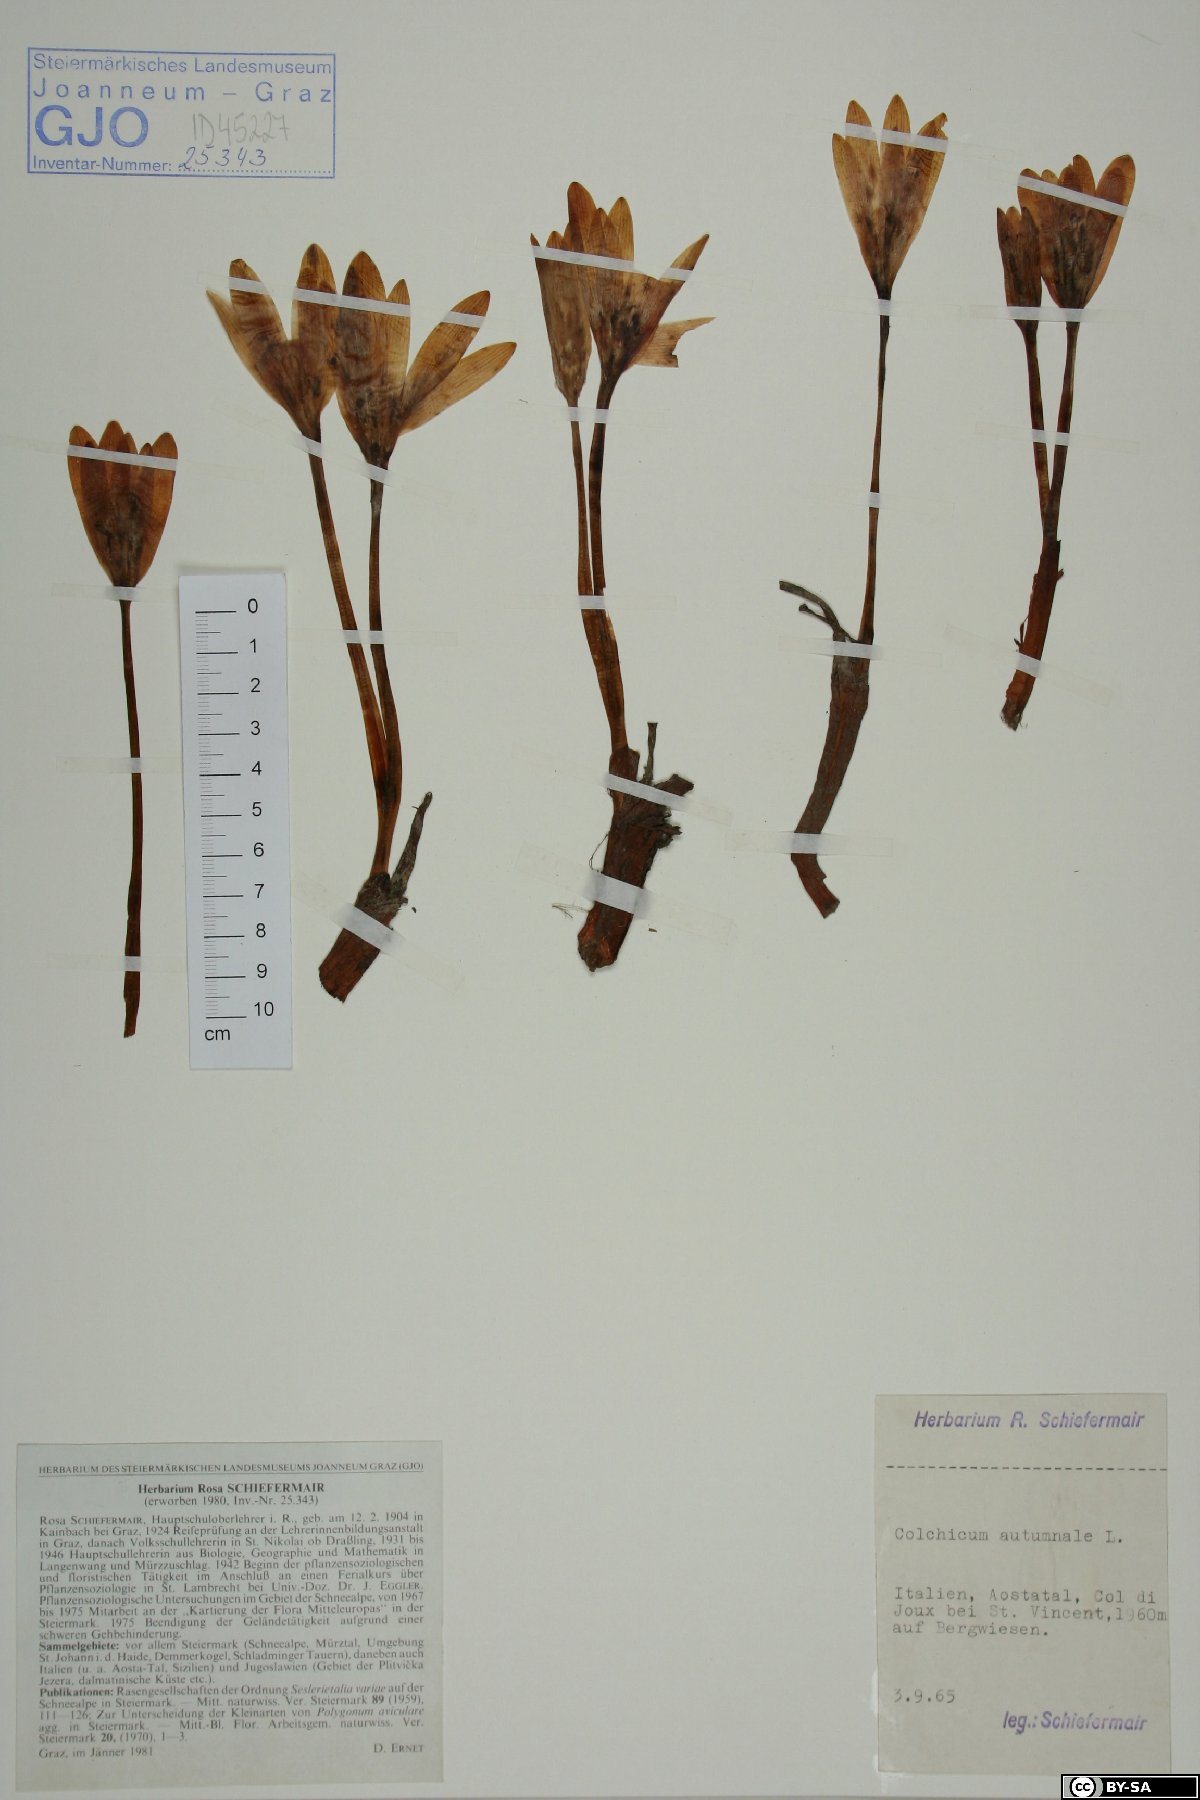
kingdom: Plantae
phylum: Tracheophyta
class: Liliopsida
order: Liliales
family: Colchicaceae
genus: Colchicum
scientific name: Colchicum autumnale
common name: Autumn crocus
